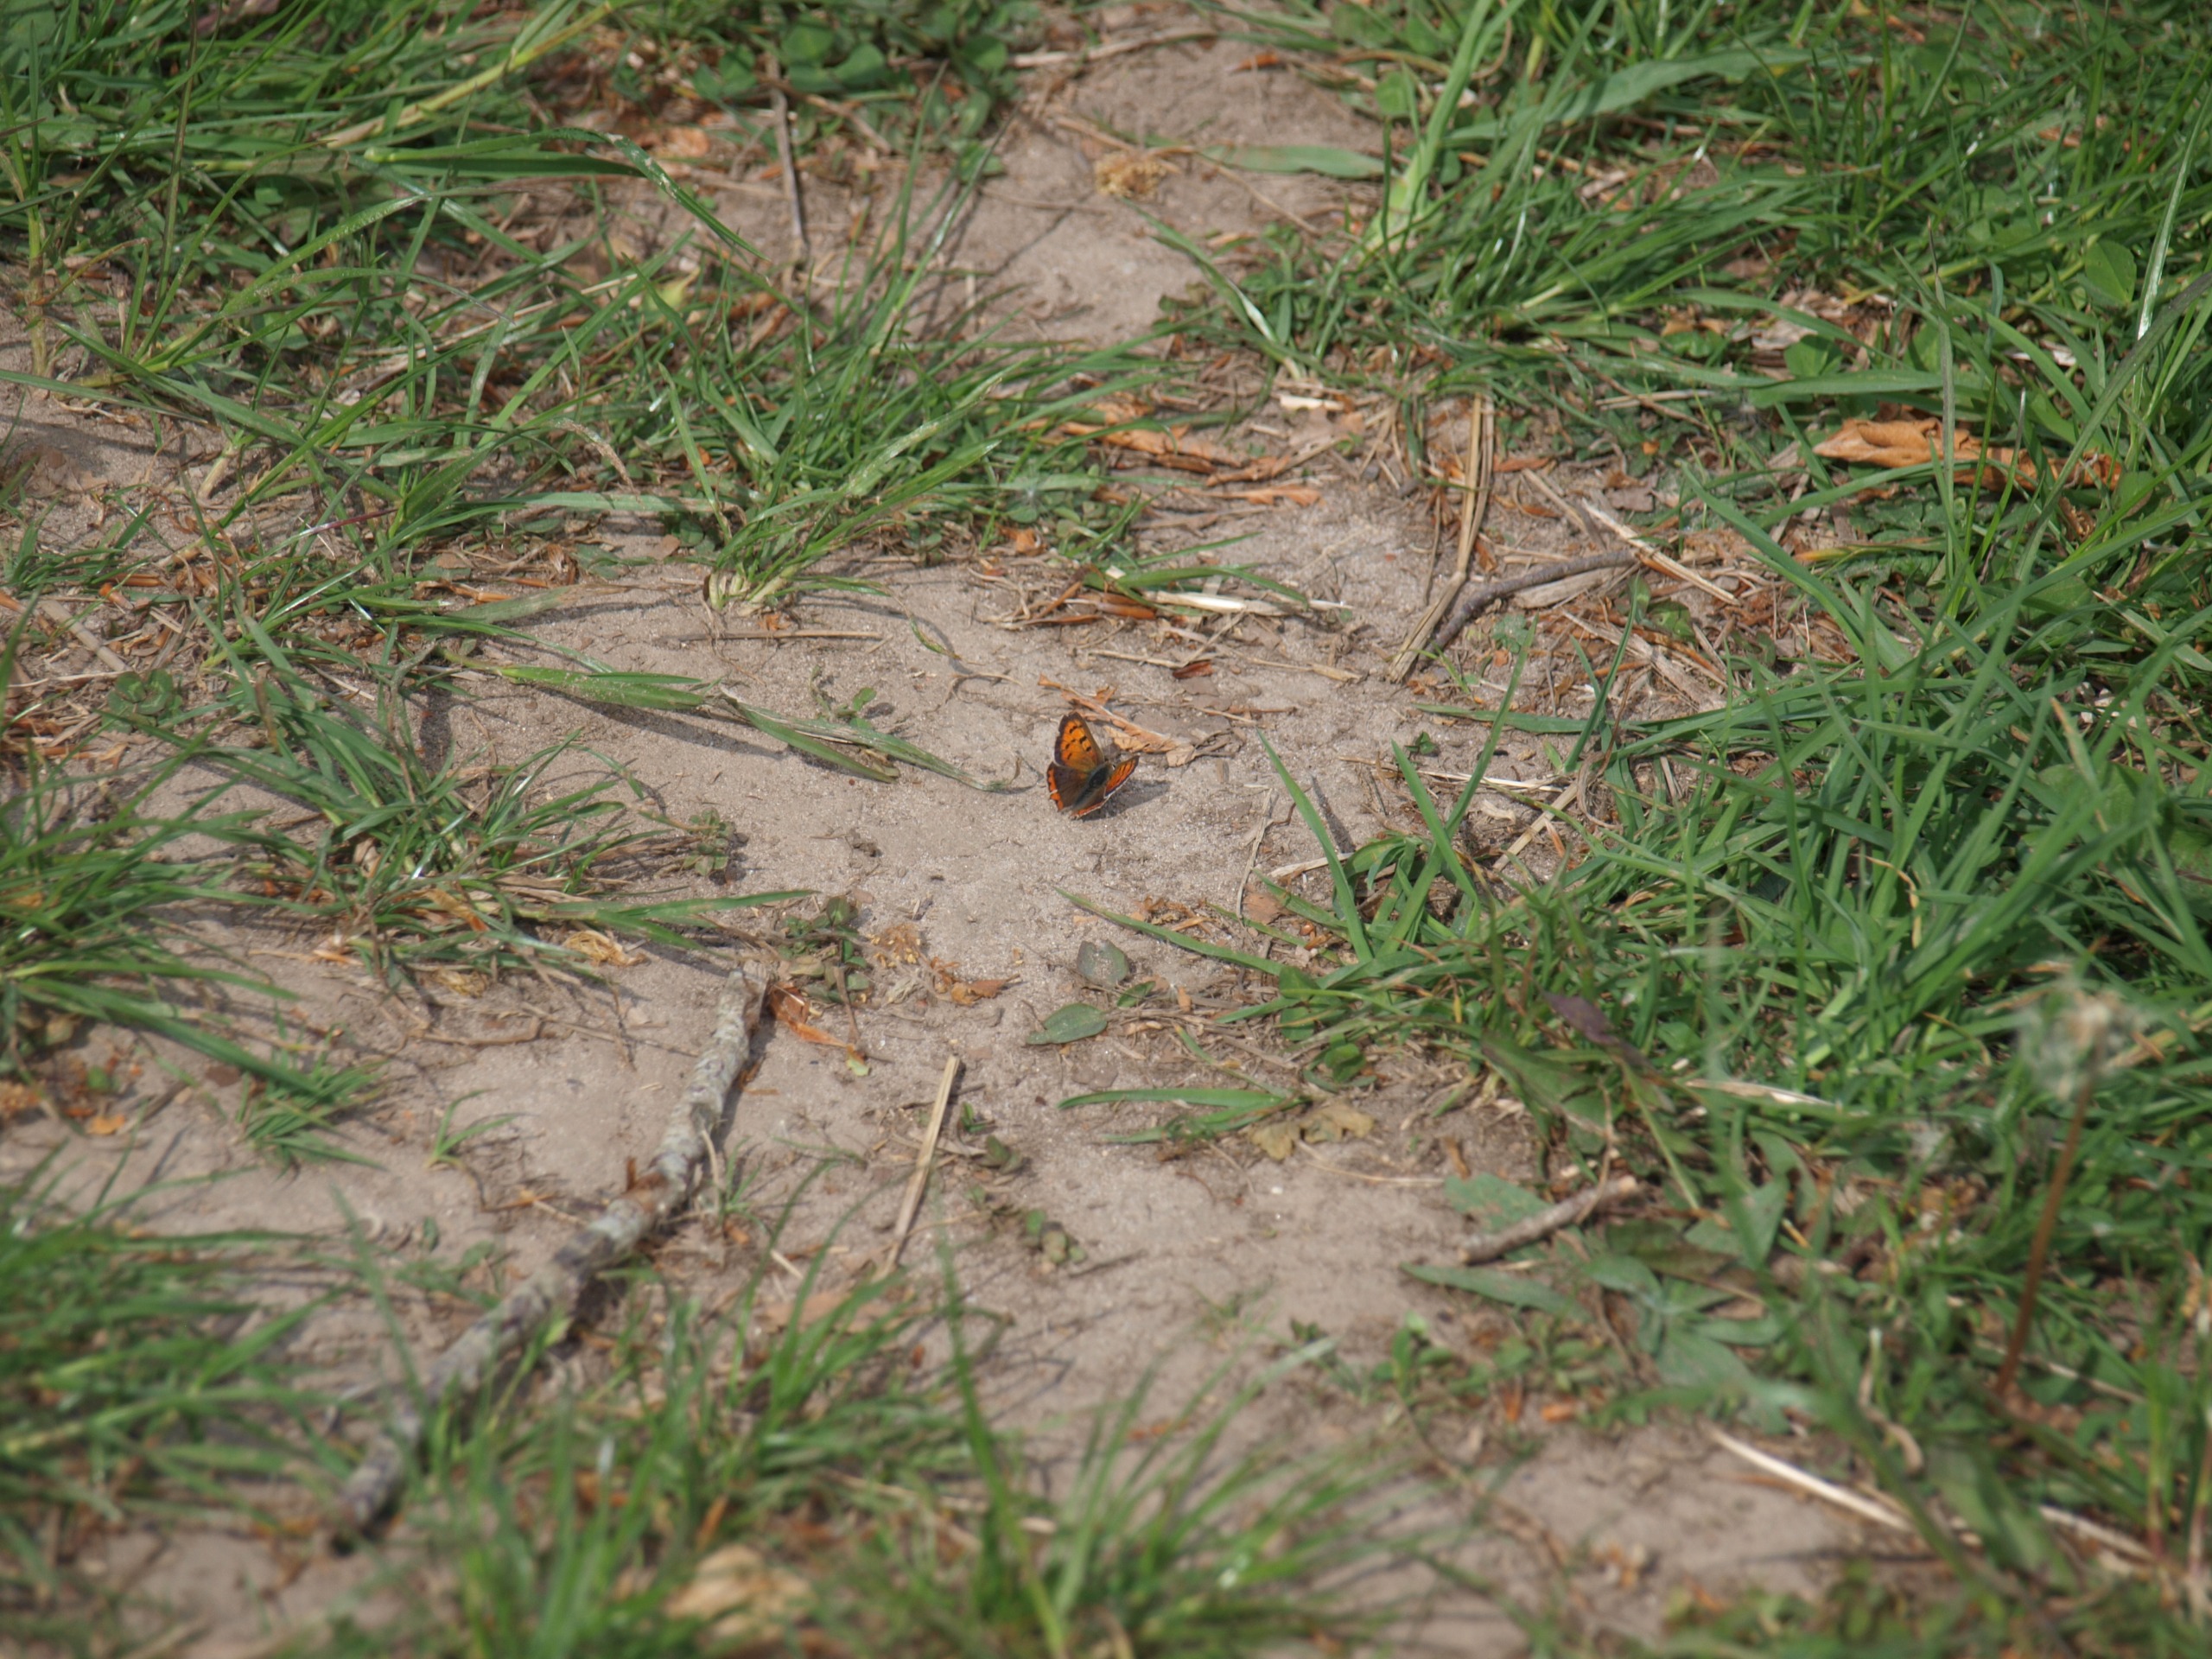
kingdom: Animalia
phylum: Arthropoda
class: Insecta
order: Lepidoptera
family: Lycaenidae
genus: Lycaena
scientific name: Lycaena phlaeas
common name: Lille ildfugl
